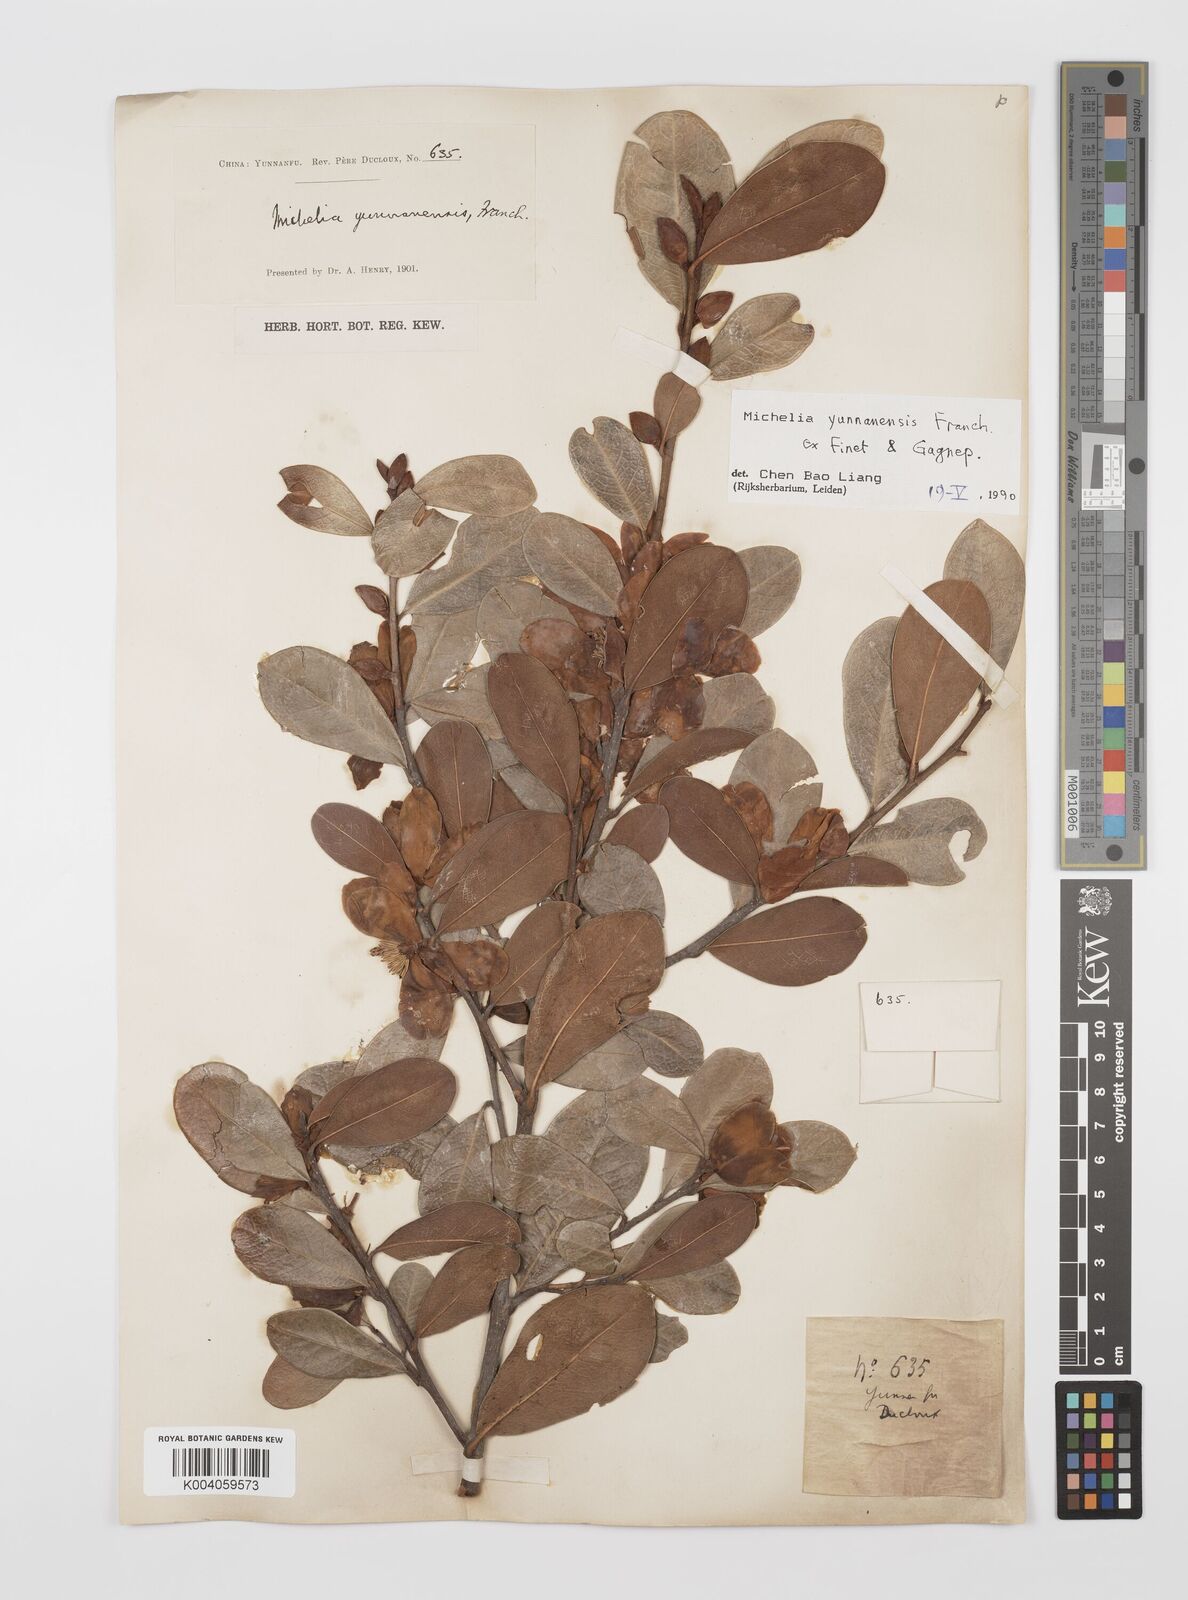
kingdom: Plantae
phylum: Tracheophyta
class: Magnoliopsida
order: Magnoliales
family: Magnoliaceae
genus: Magnolia
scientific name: Magnolia laevifolia
